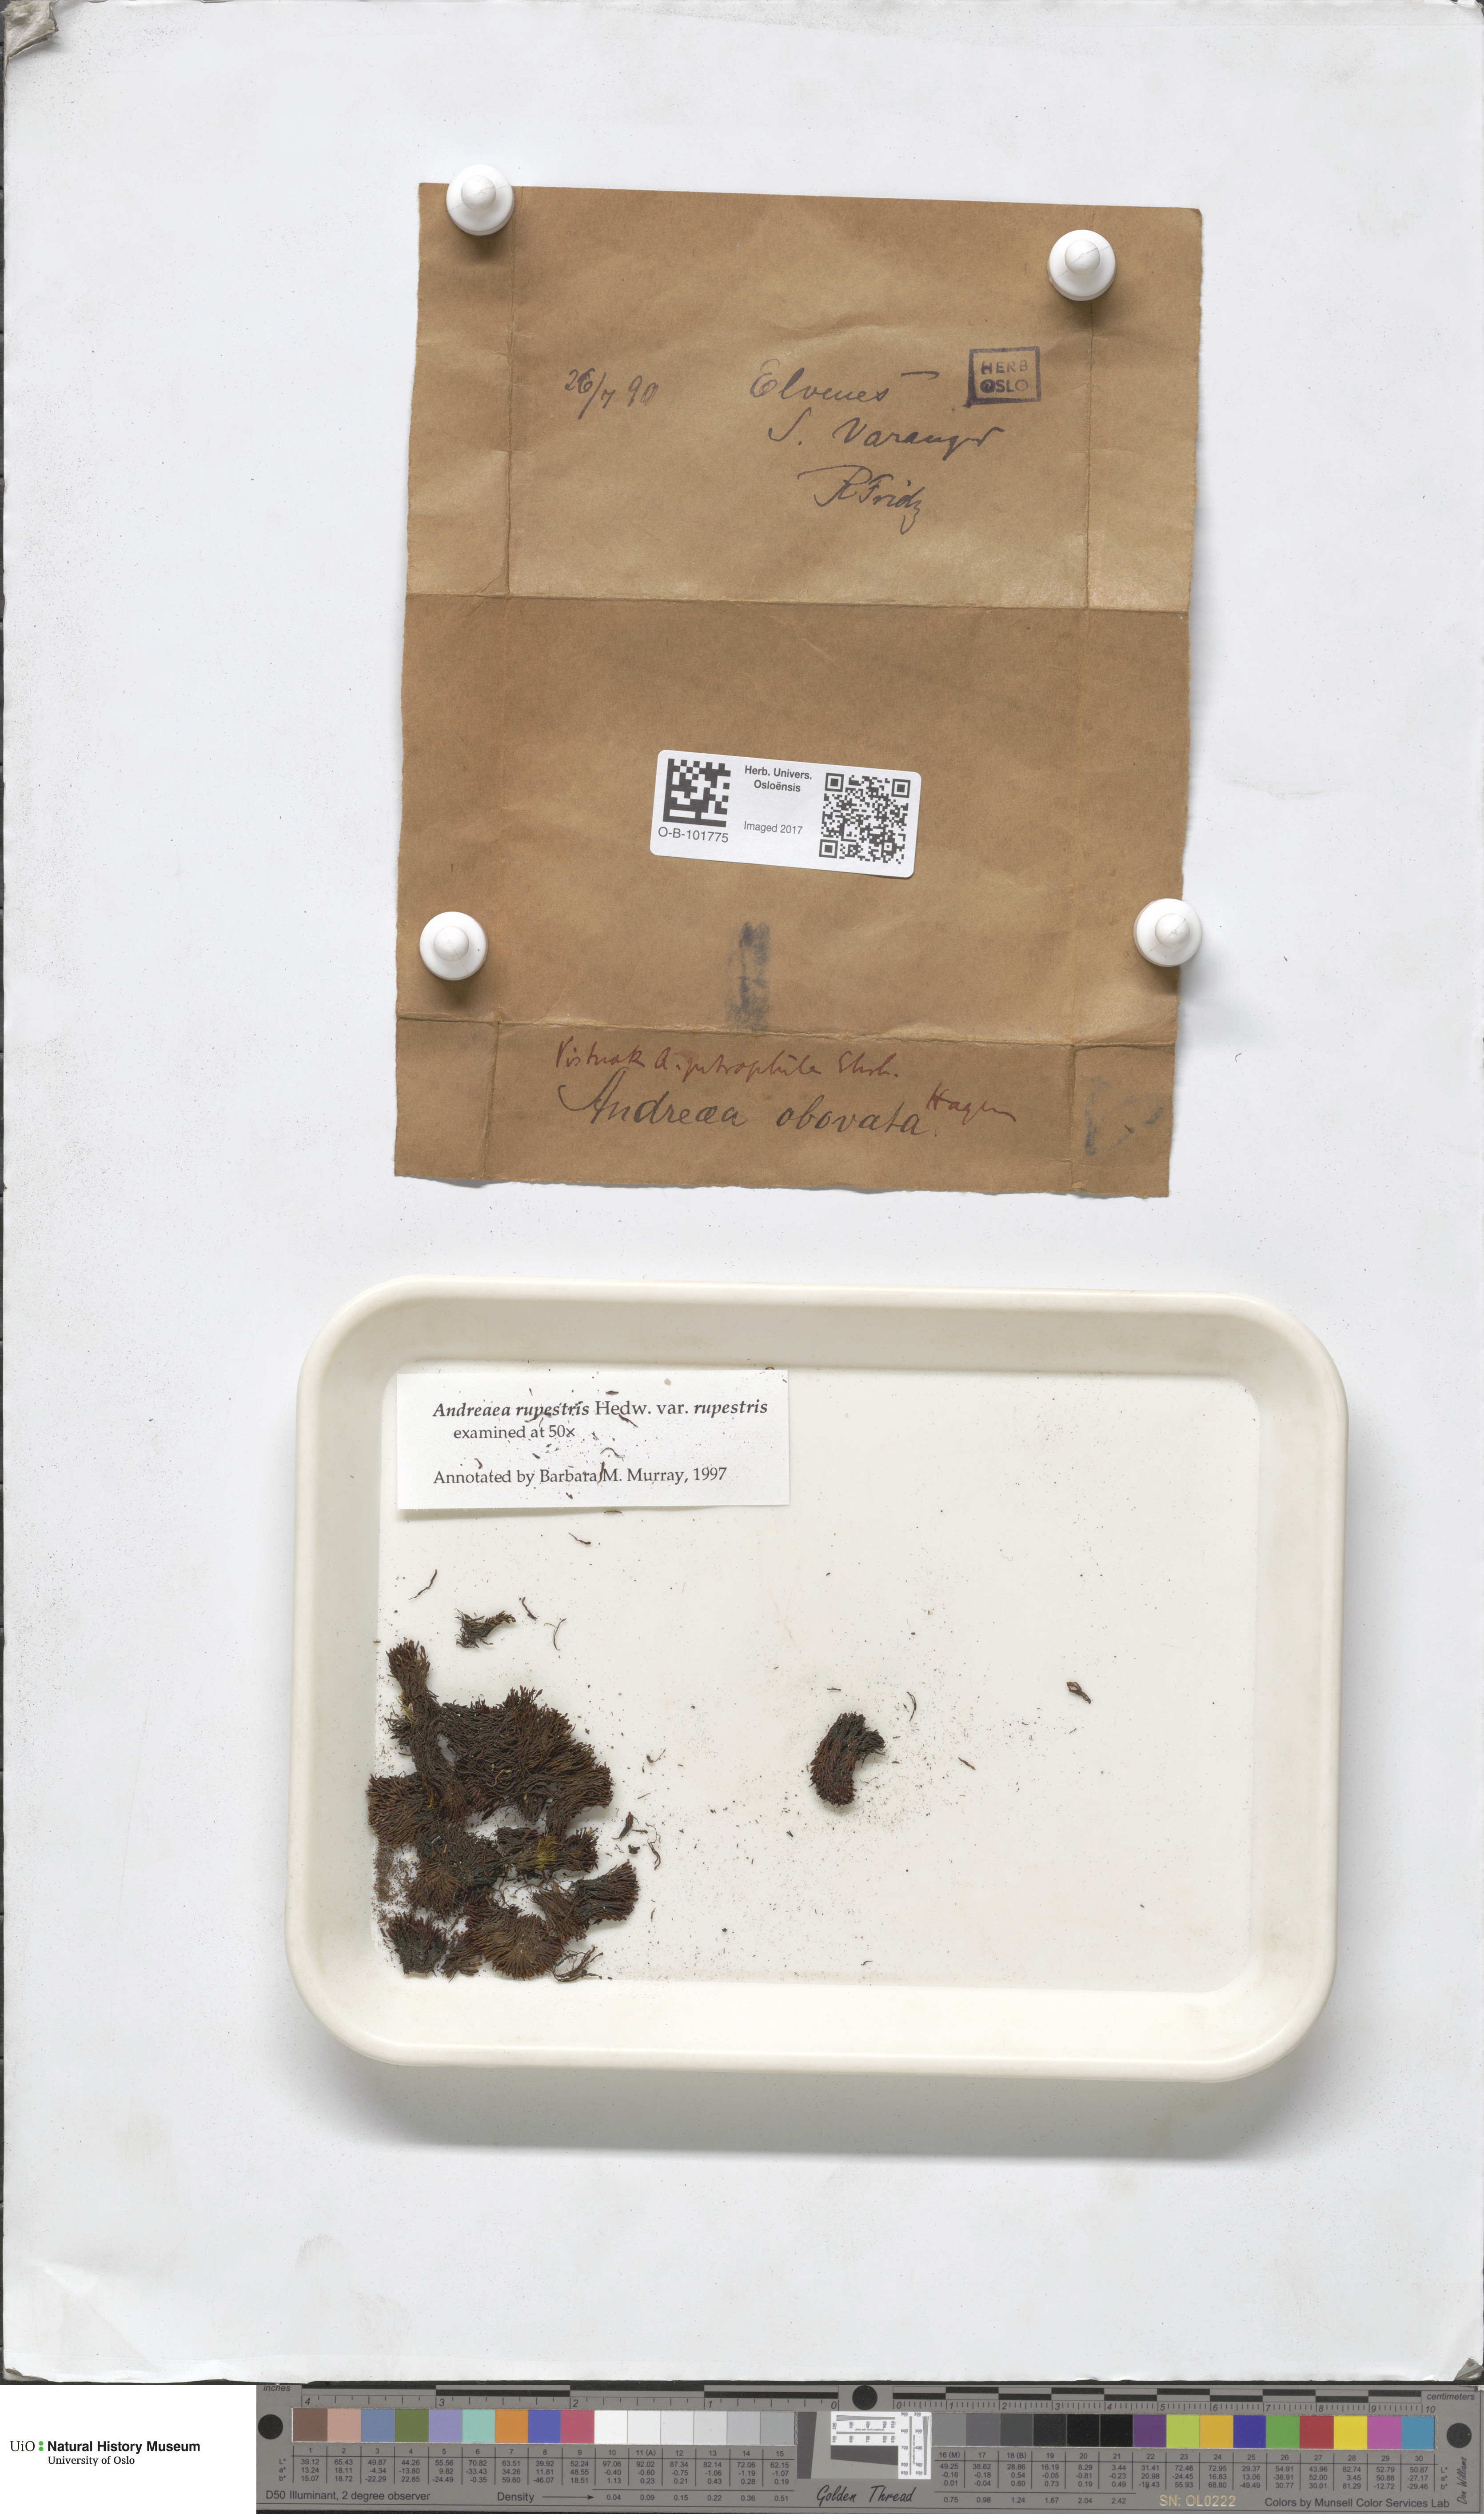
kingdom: Plantae
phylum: Bryophyta
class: Andreaeopsida
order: Andreaeales
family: Andreaeaceae
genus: Andreaea
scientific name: Andreaea rupestris
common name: Black rock moss
